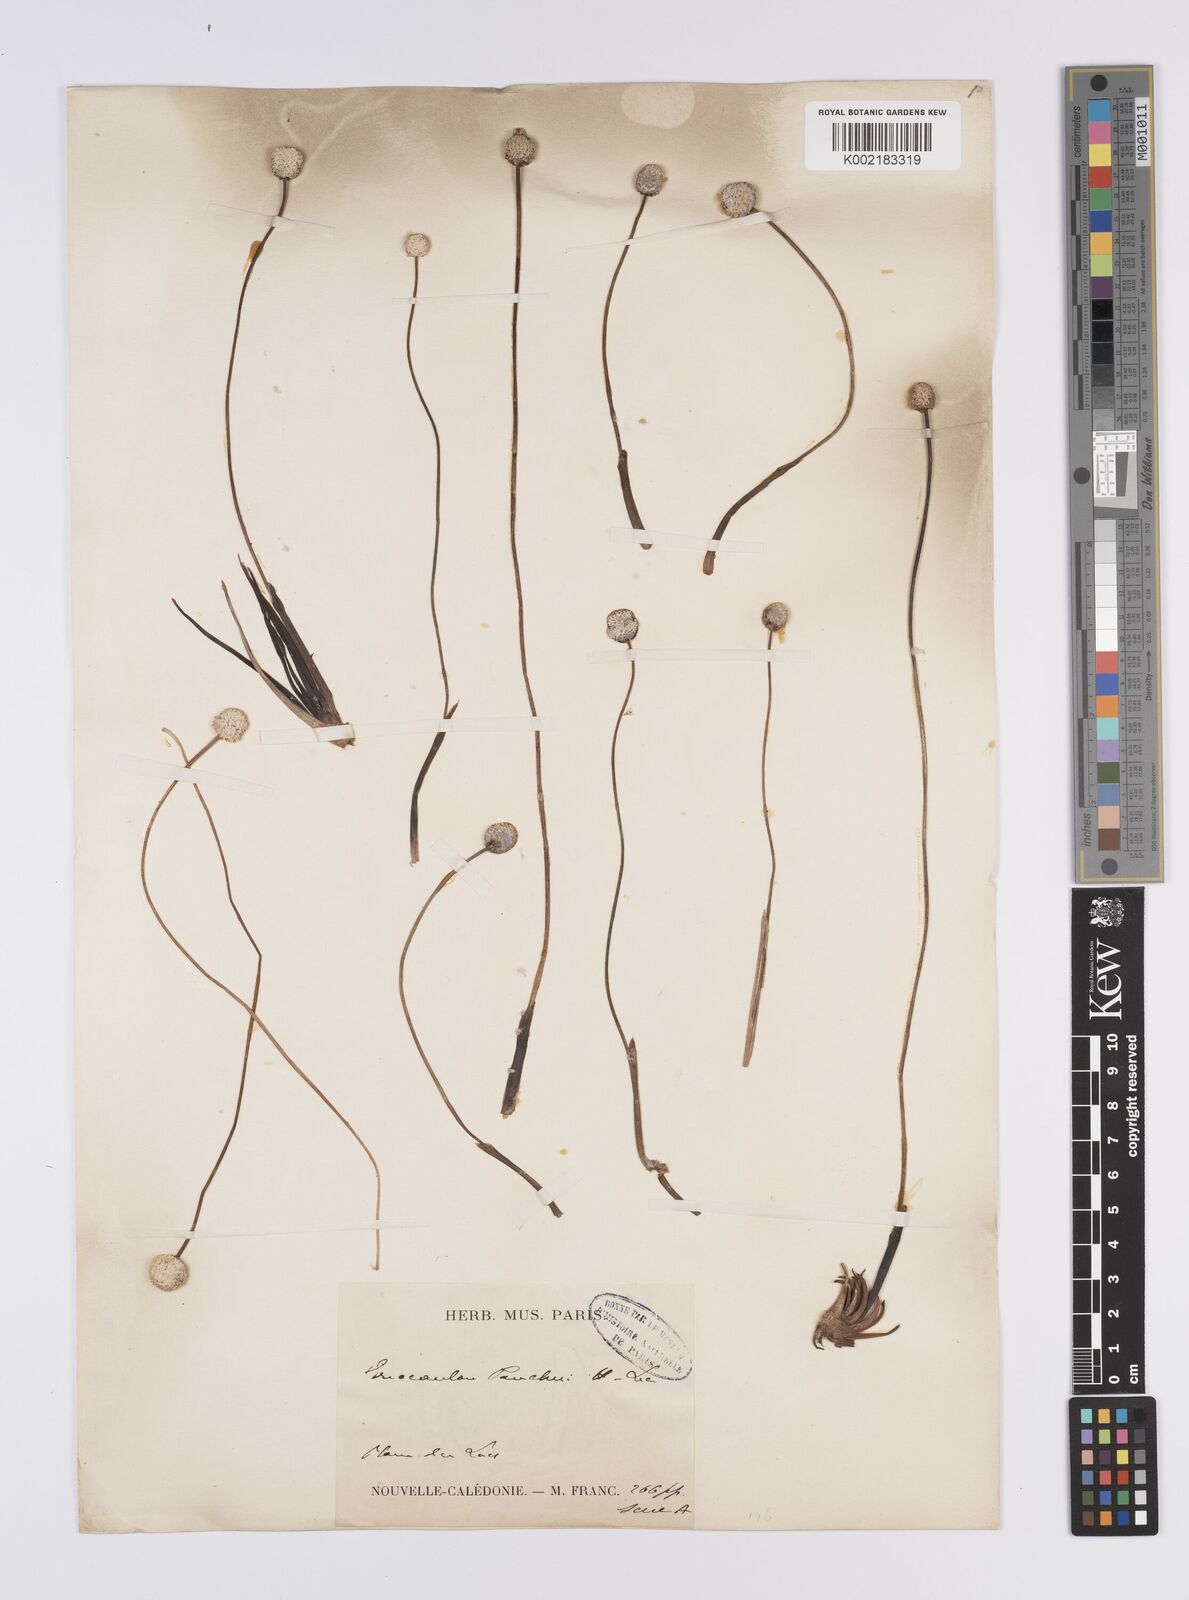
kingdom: Plantae
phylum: Tracheophyta
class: Liliopsida
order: Poales
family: Eriocaulaceae
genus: Eriocaulon
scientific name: Eriocaulon pancheri
